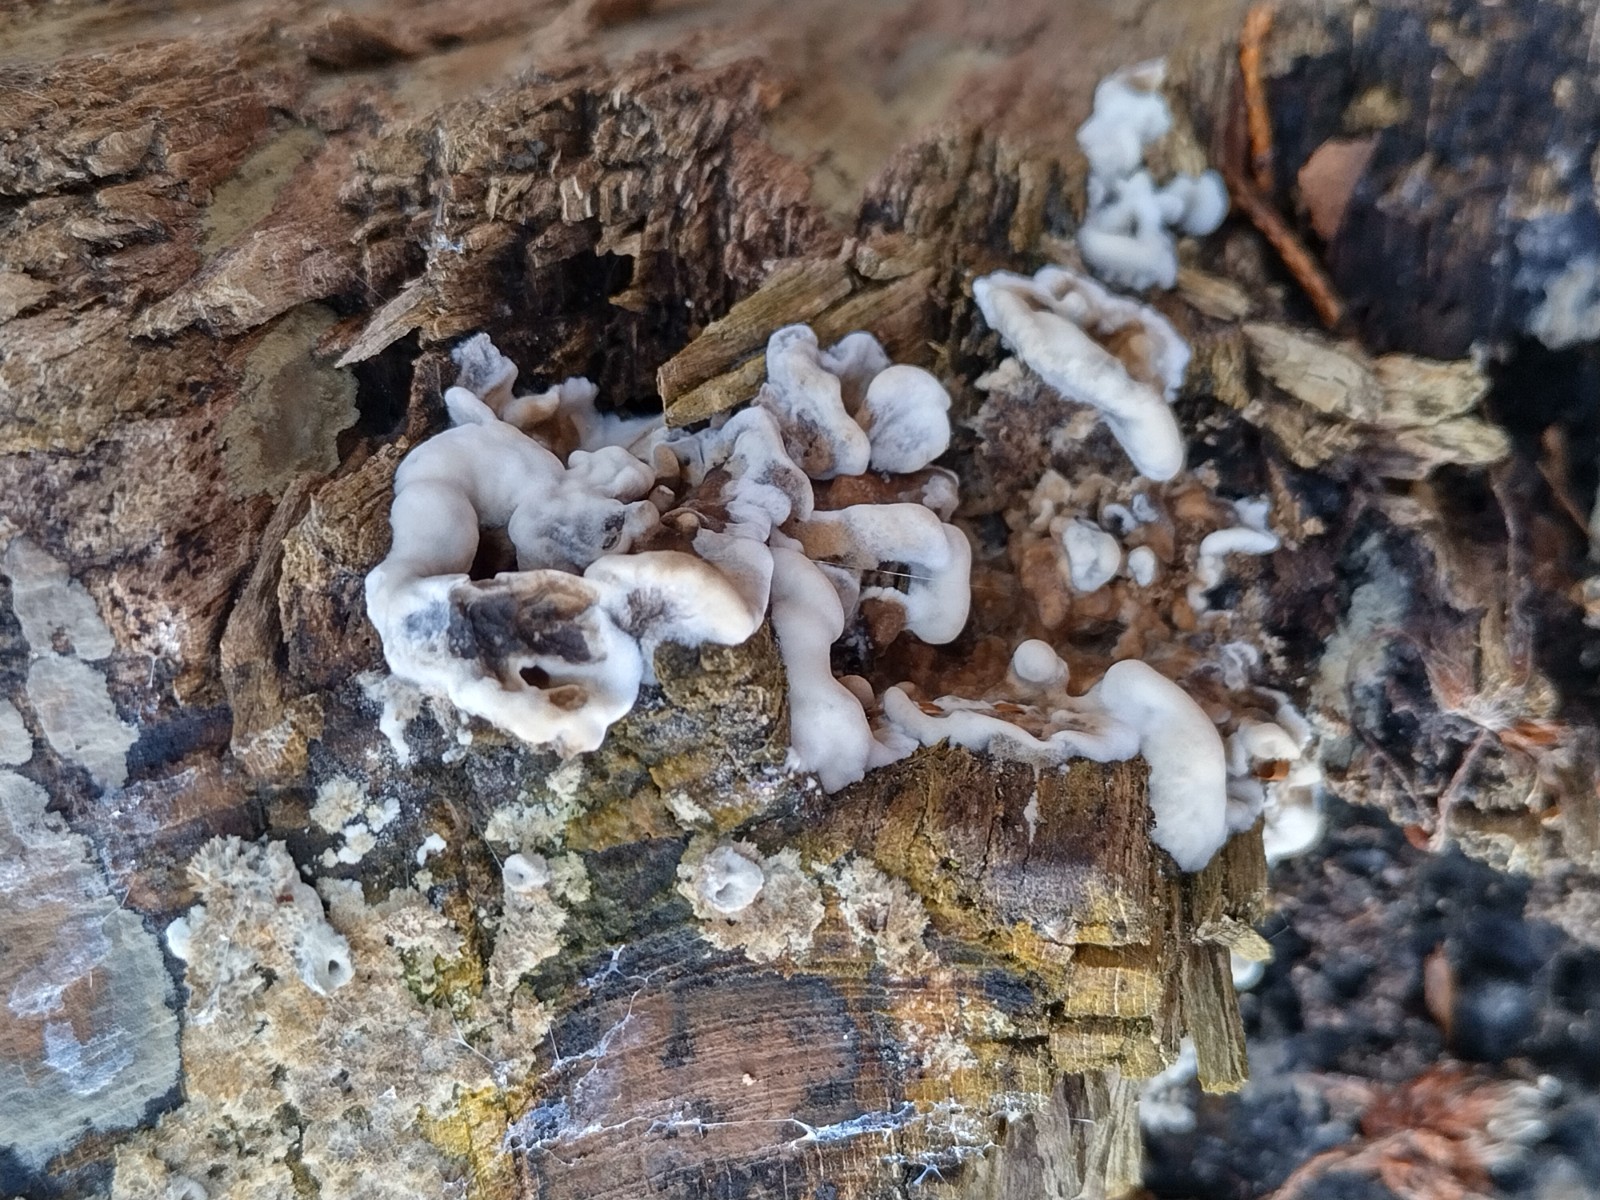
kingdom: Fungi
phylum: Ascomycota
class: Sordariomycetes
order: Xylariales
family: Xylariaceae
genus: Kretzschmaria
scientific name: Kretzschmaria deusta
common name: stor kulsvamp
